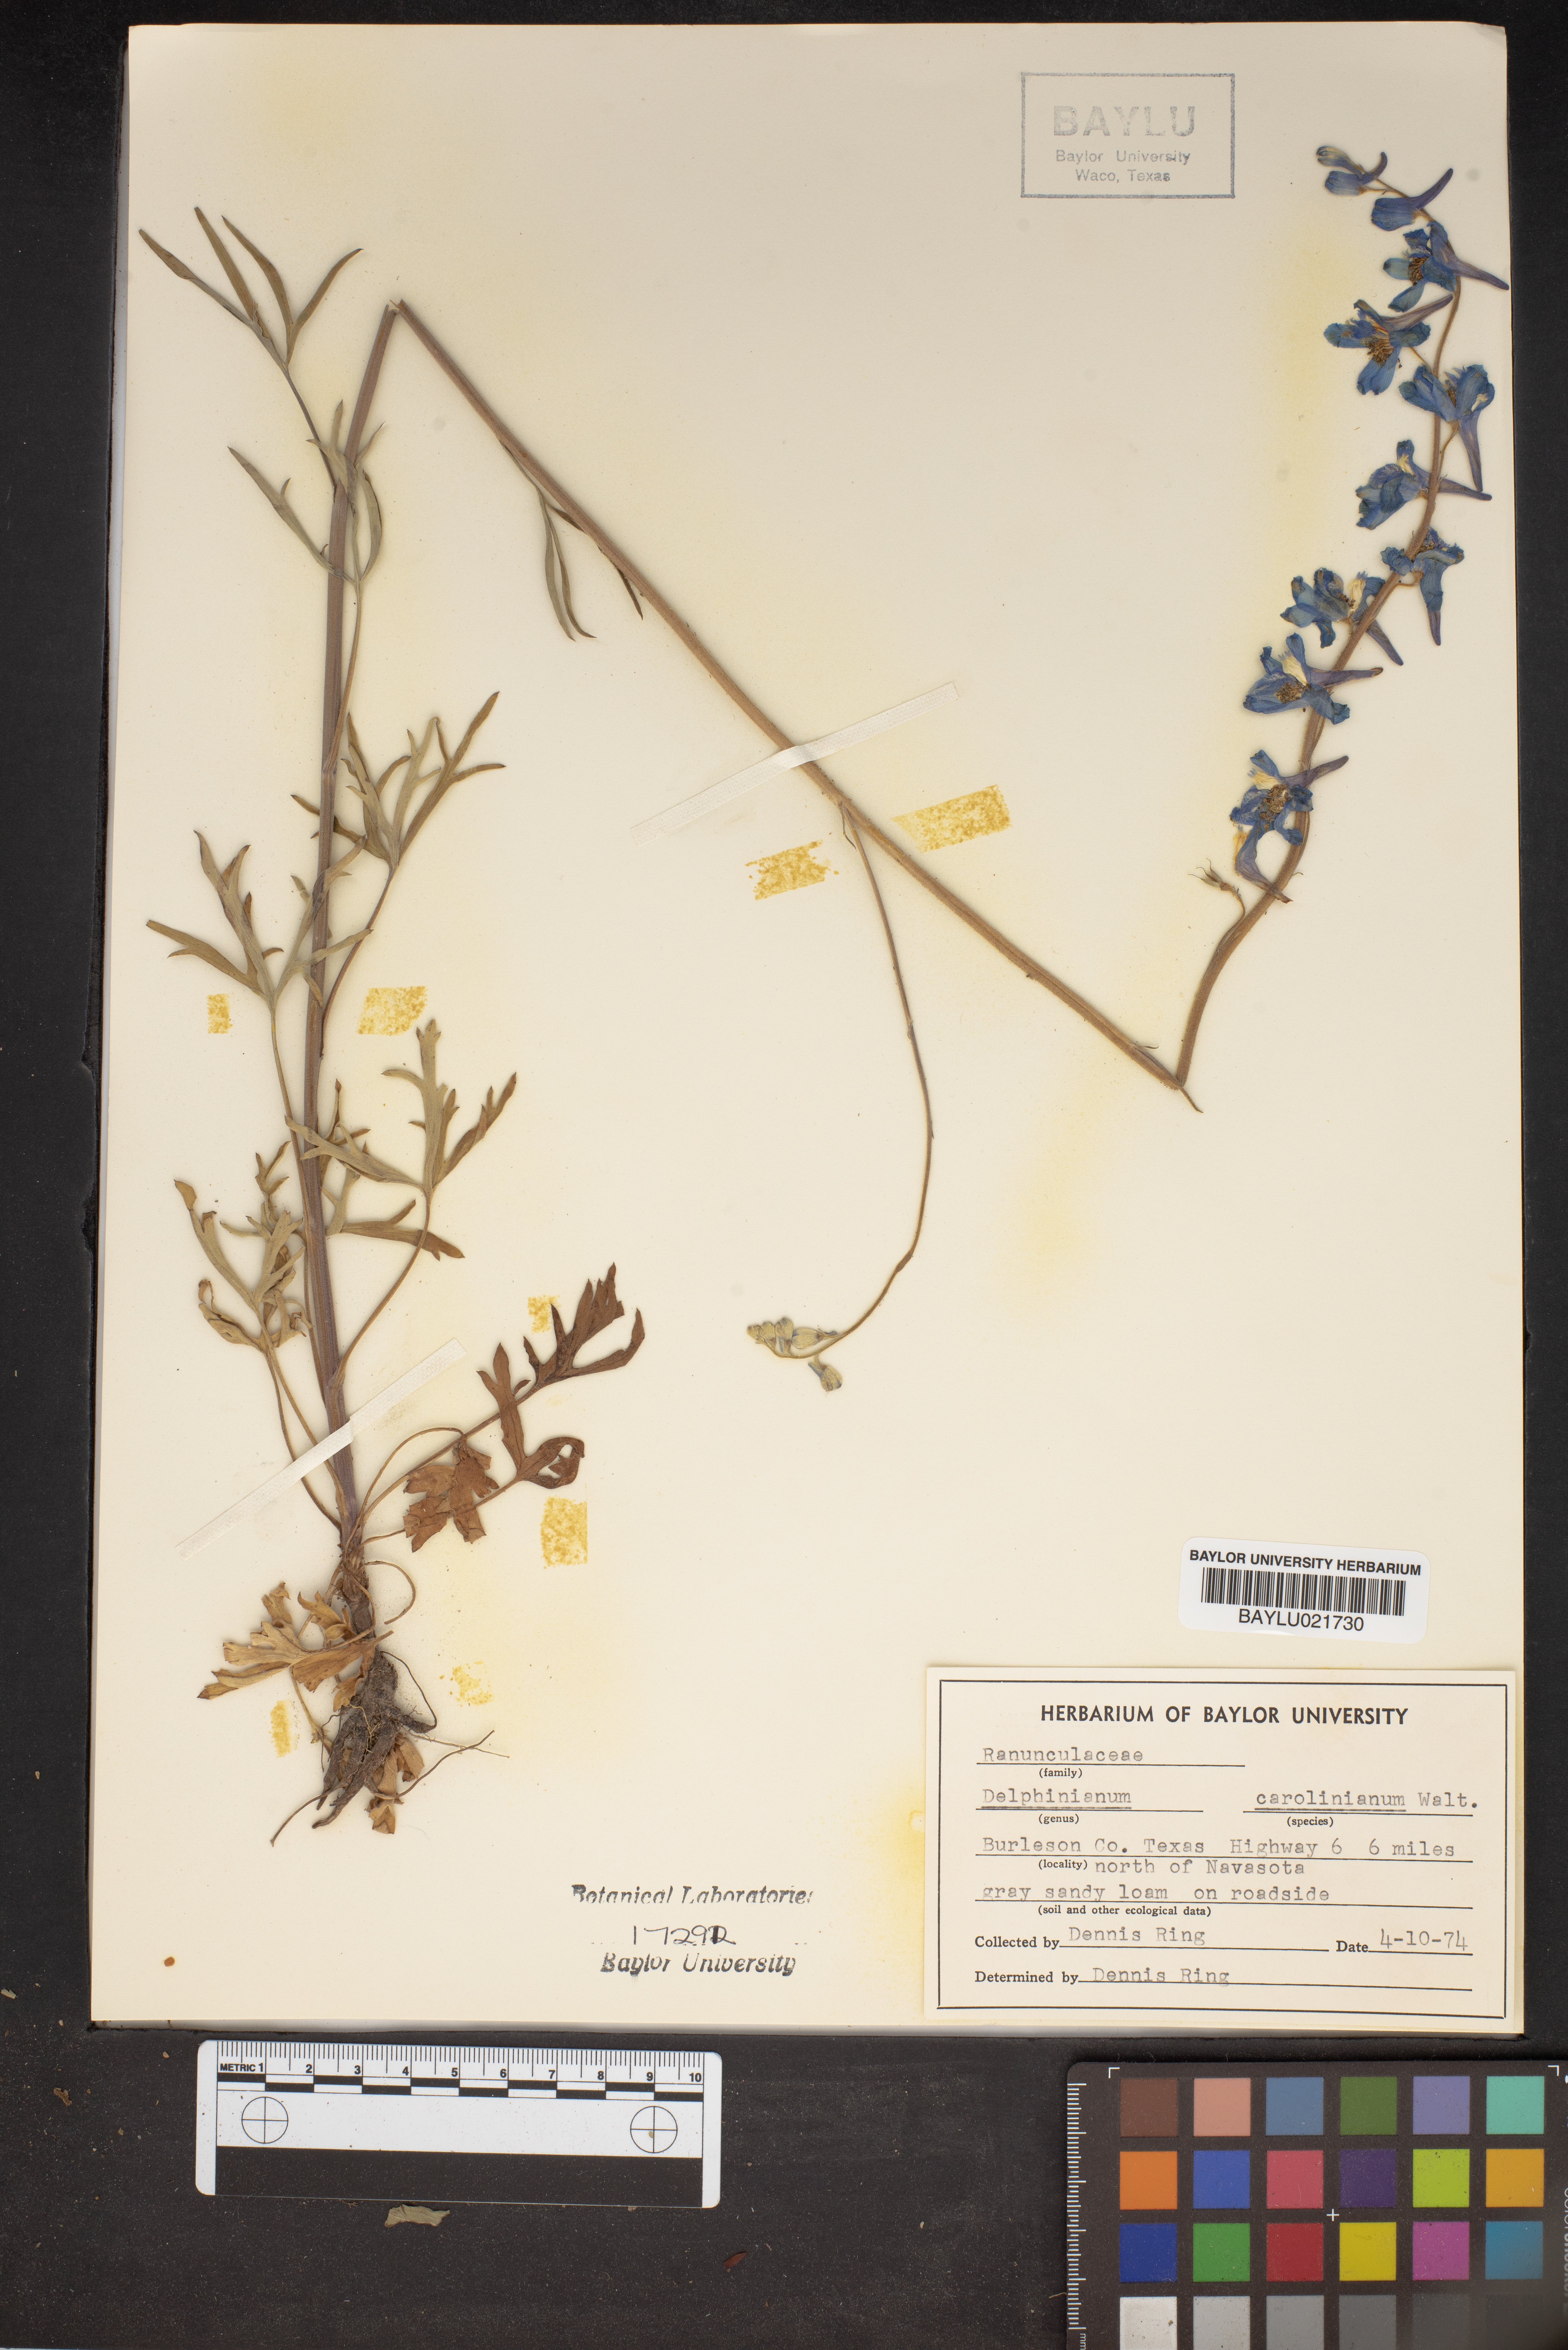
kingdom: Plantae
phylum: Tracheophyta
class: Magnoliopsida
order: Ranunculales
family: Ranunculaceae
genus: Delphinium
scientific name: Delphinium carolinianum
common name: Carolina larkspur
